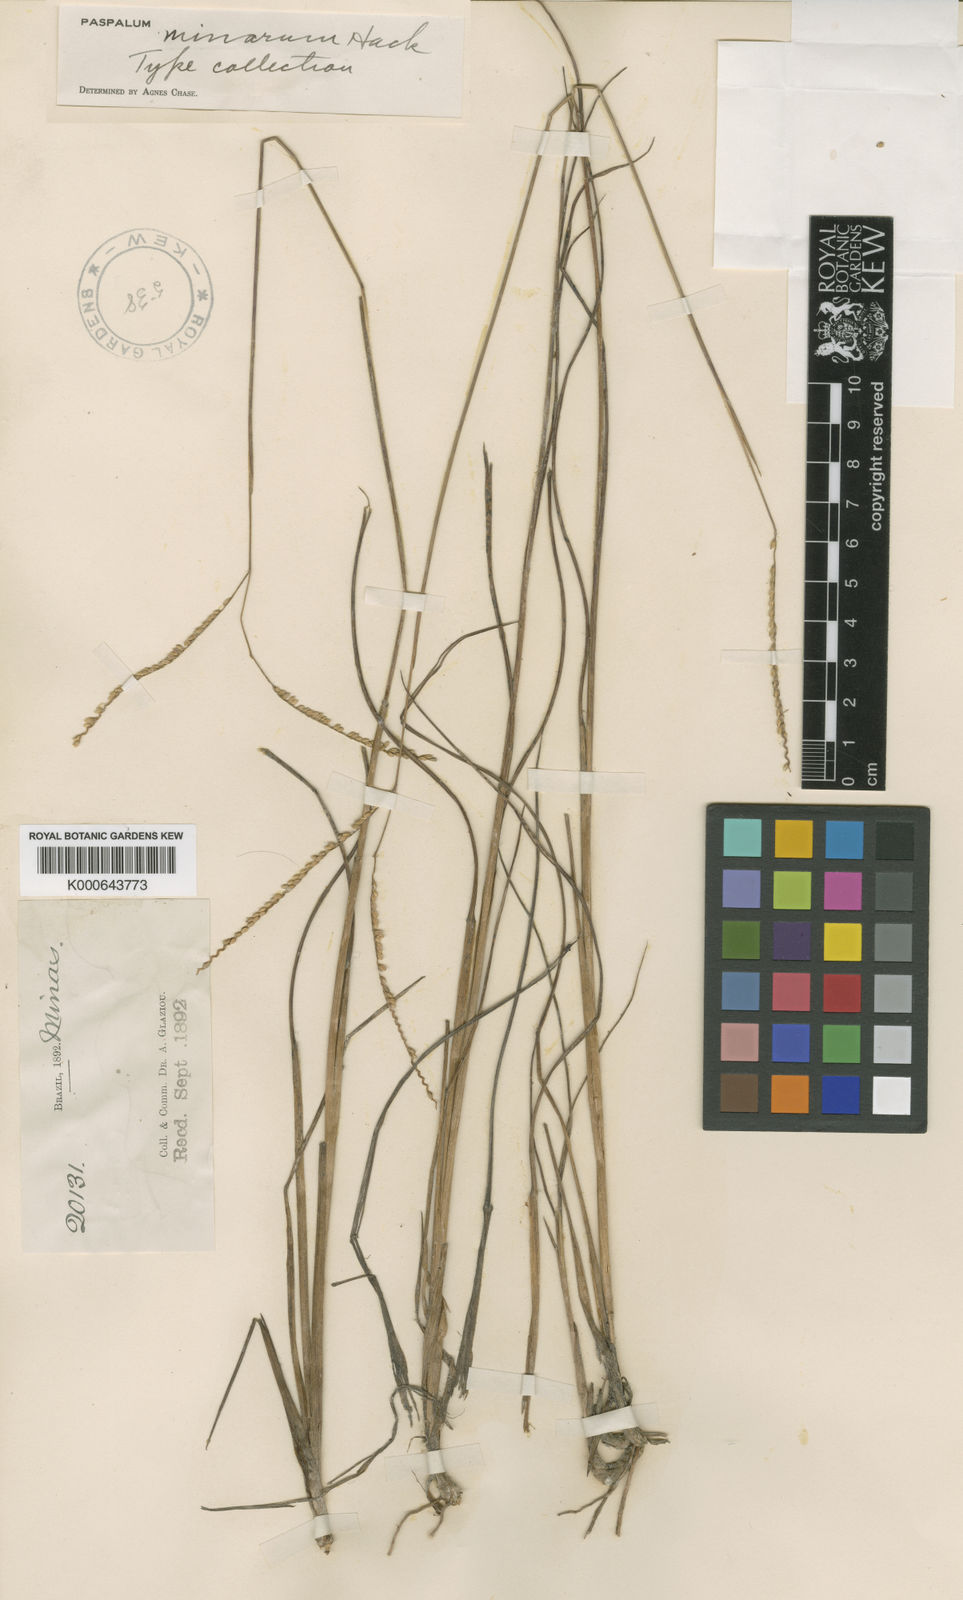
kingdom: Plantae
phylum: Tracheophyta
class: Liliopsida
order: Poales
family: Poaceae
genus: Paspalum
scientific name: Paspalum minarum
